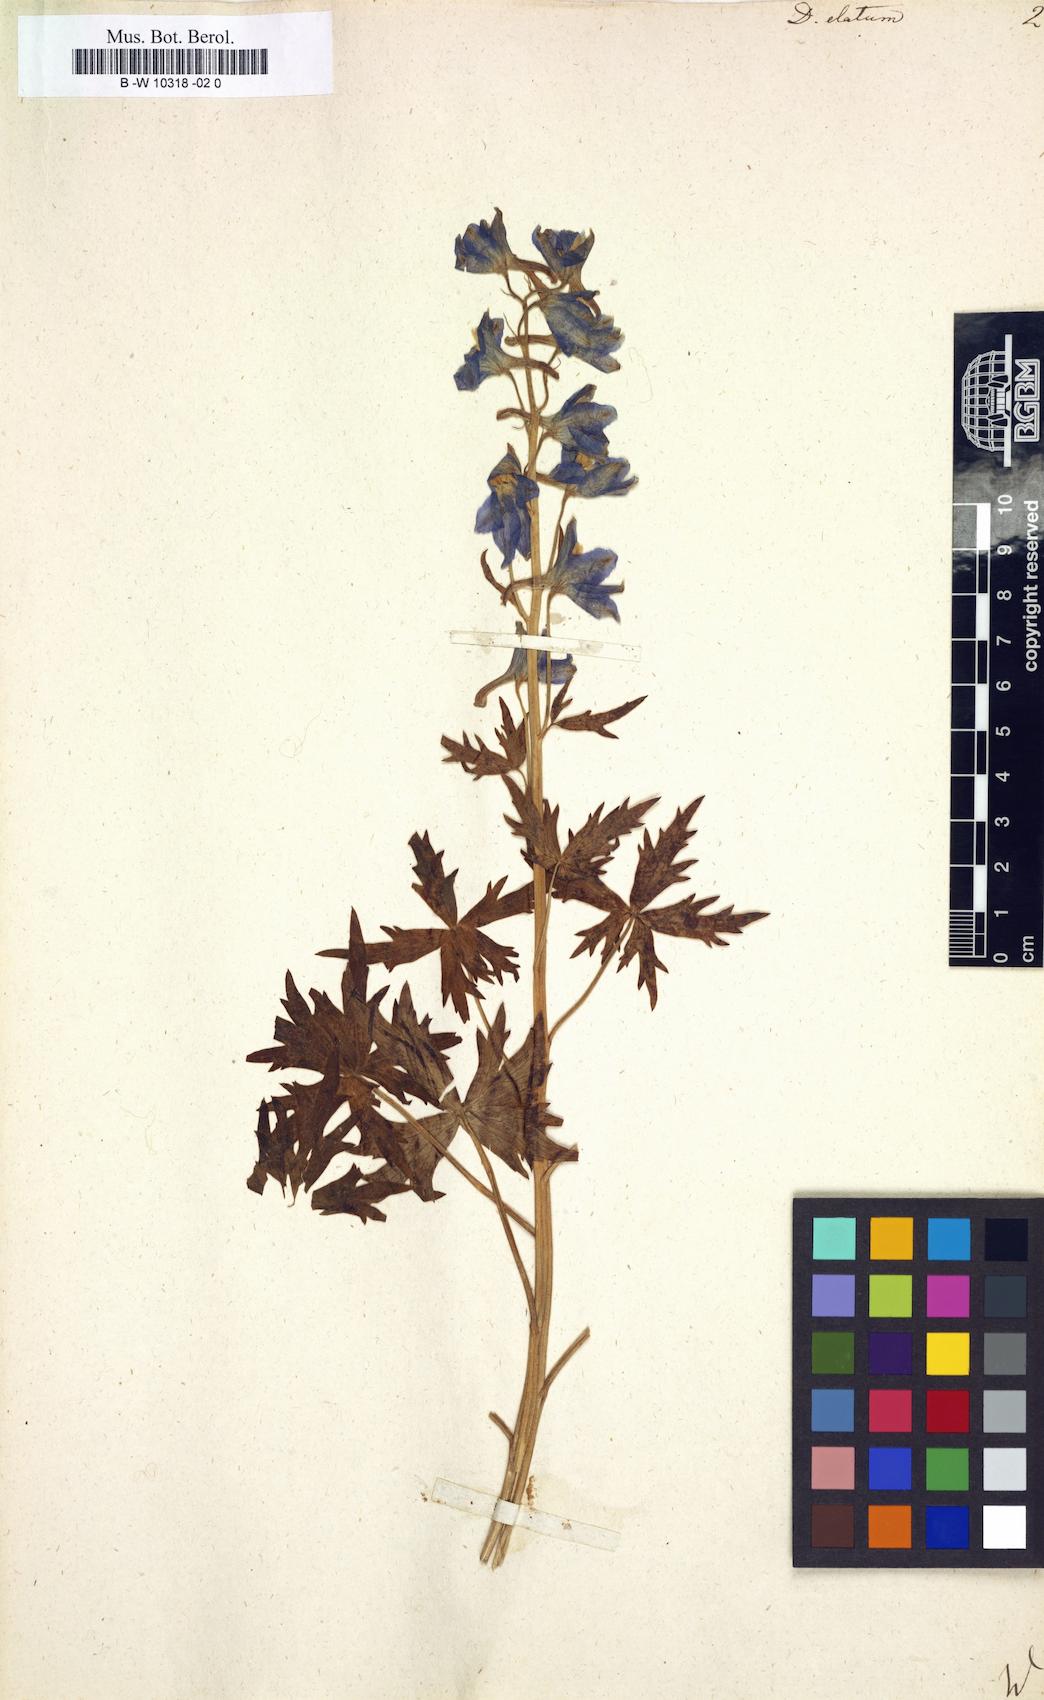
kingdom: Plantae
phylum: Tracheophyta
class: Magnoliopsida
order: Ranunculales
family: Ranunculaceae
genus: Delphinium
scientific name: Delphinium elatum
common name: Candle larkspur
